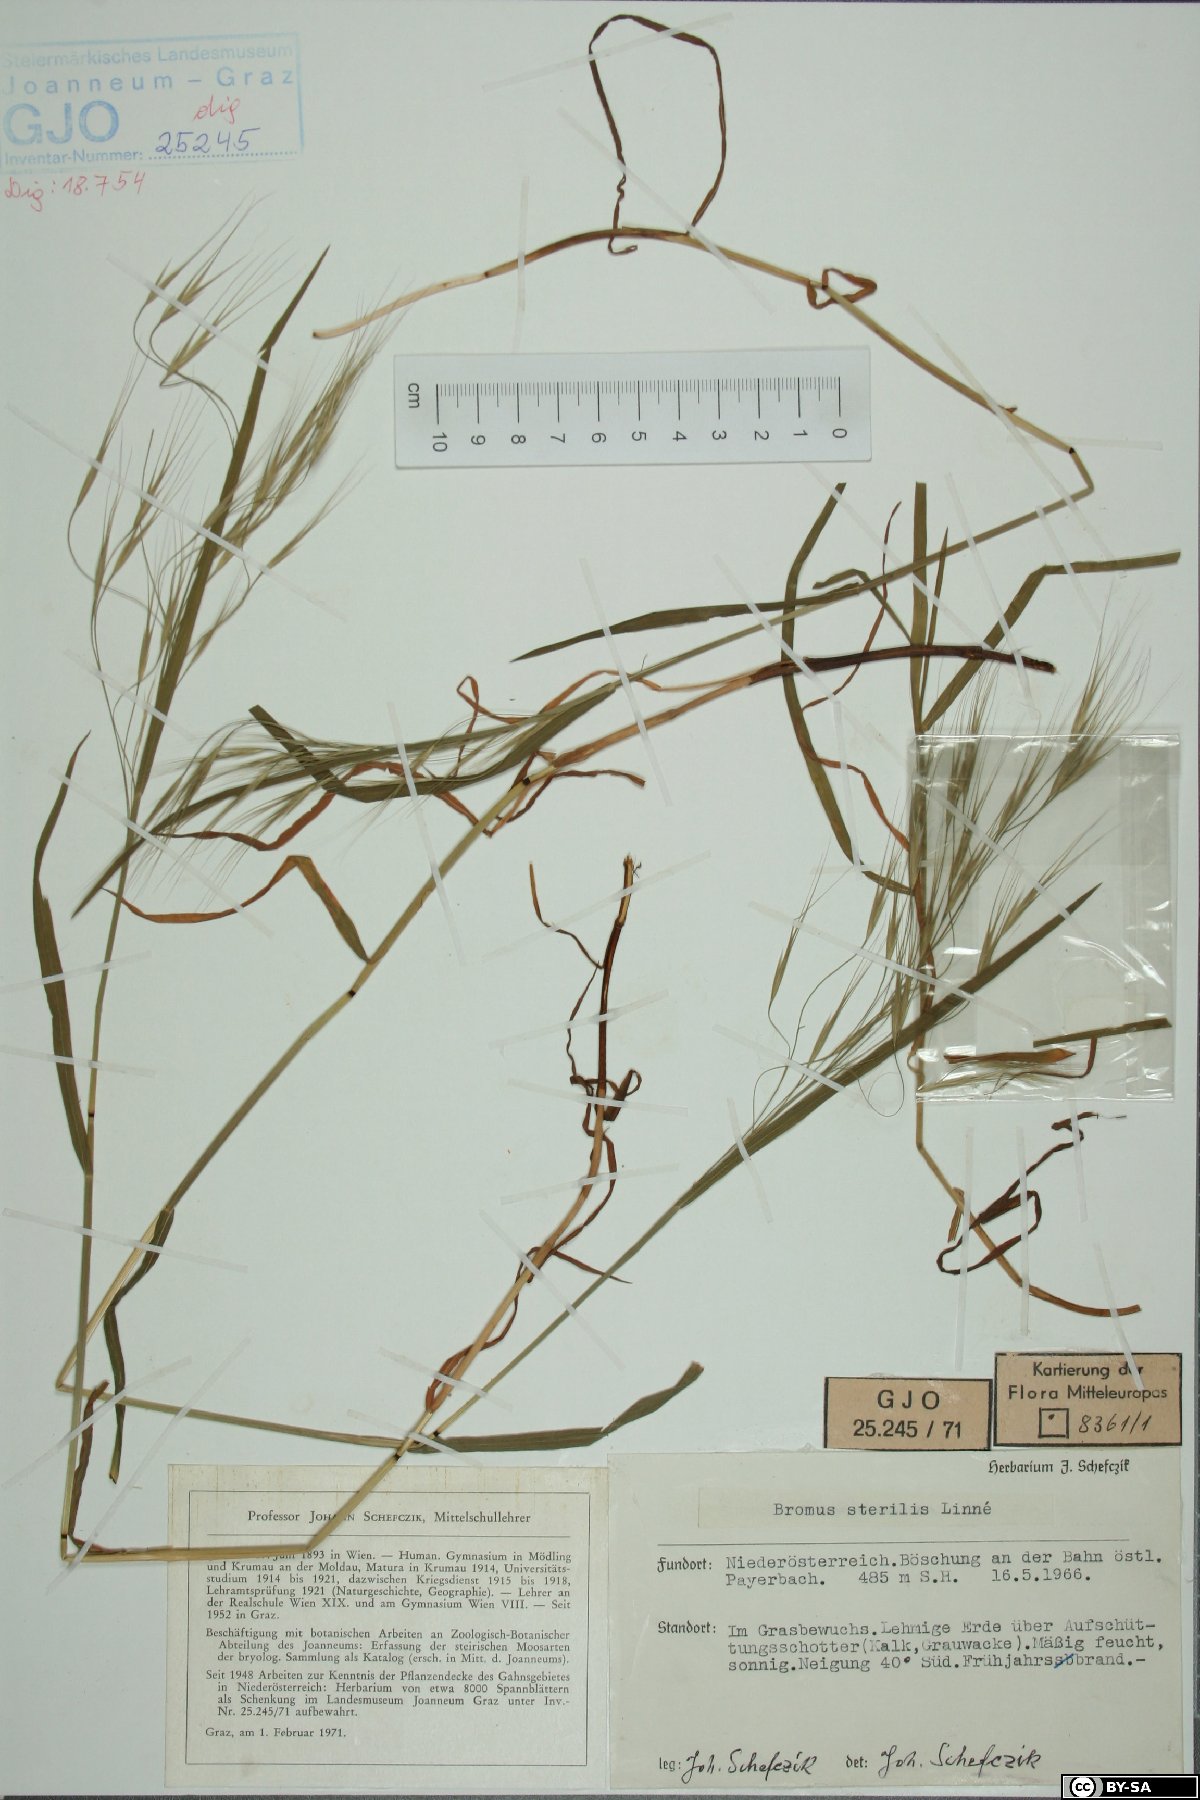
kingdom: Plantae
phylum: Tracheophyta
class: Liliopsida
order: Poales
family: Poaceae
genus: Bromus
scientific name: Bromus sterilis
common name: Poverty brome
